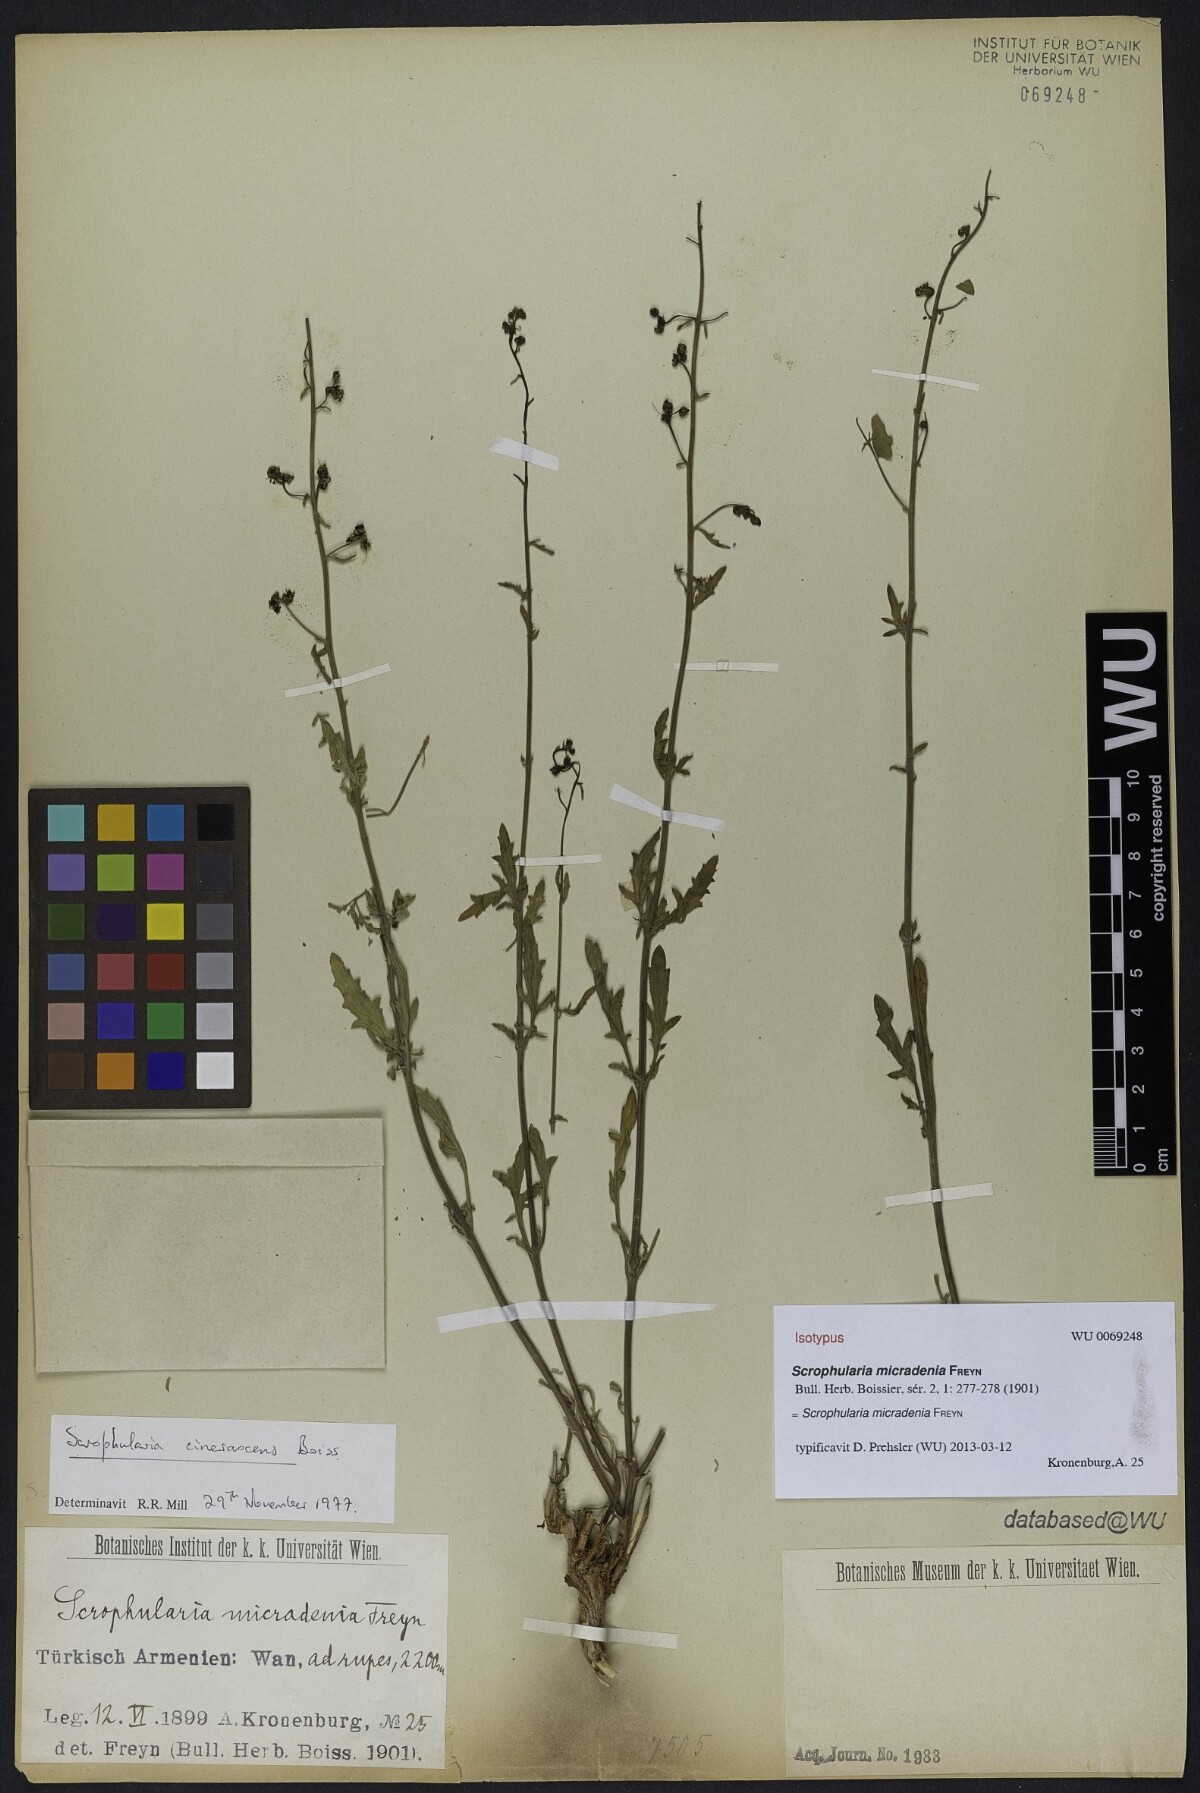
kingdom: Plantae
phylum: Tracheophyta
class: Magnoliopsida
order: Lamiales
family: Scrophulariaceae
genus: Scrophularia
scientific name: Scrophularia versicolor
